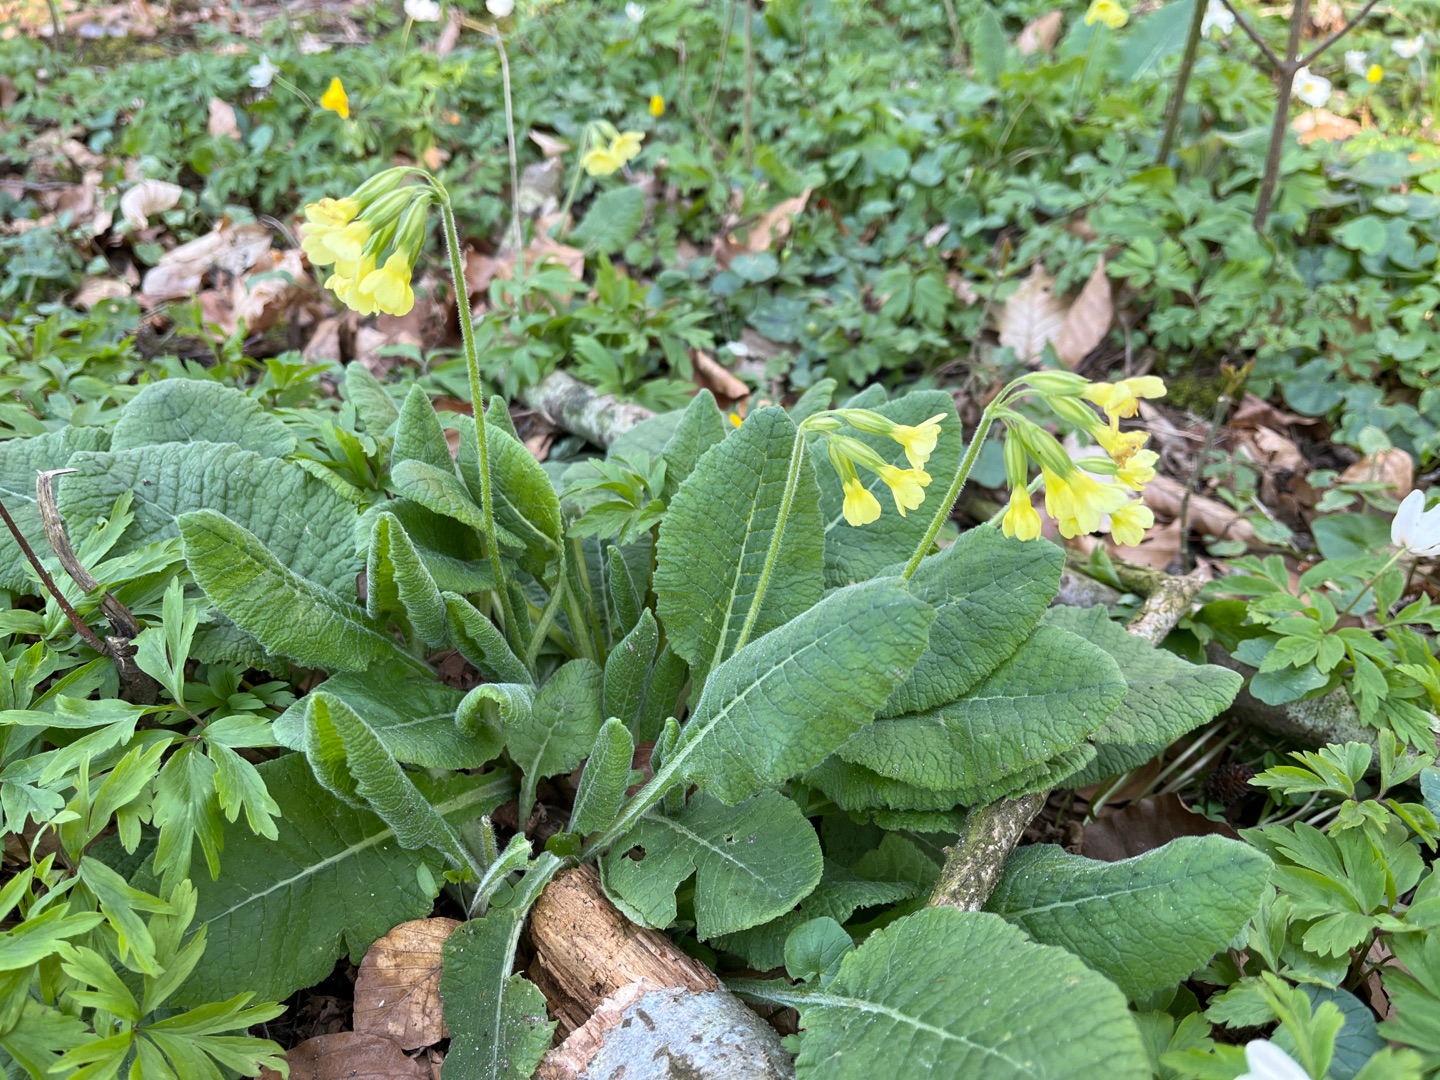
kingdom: Plantae
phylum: Tracheophyta
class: Magnoliopsida
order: Ericales
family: Primulaceae
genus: Primula
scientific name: Primula elatior
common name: Fladkravet kodriver
